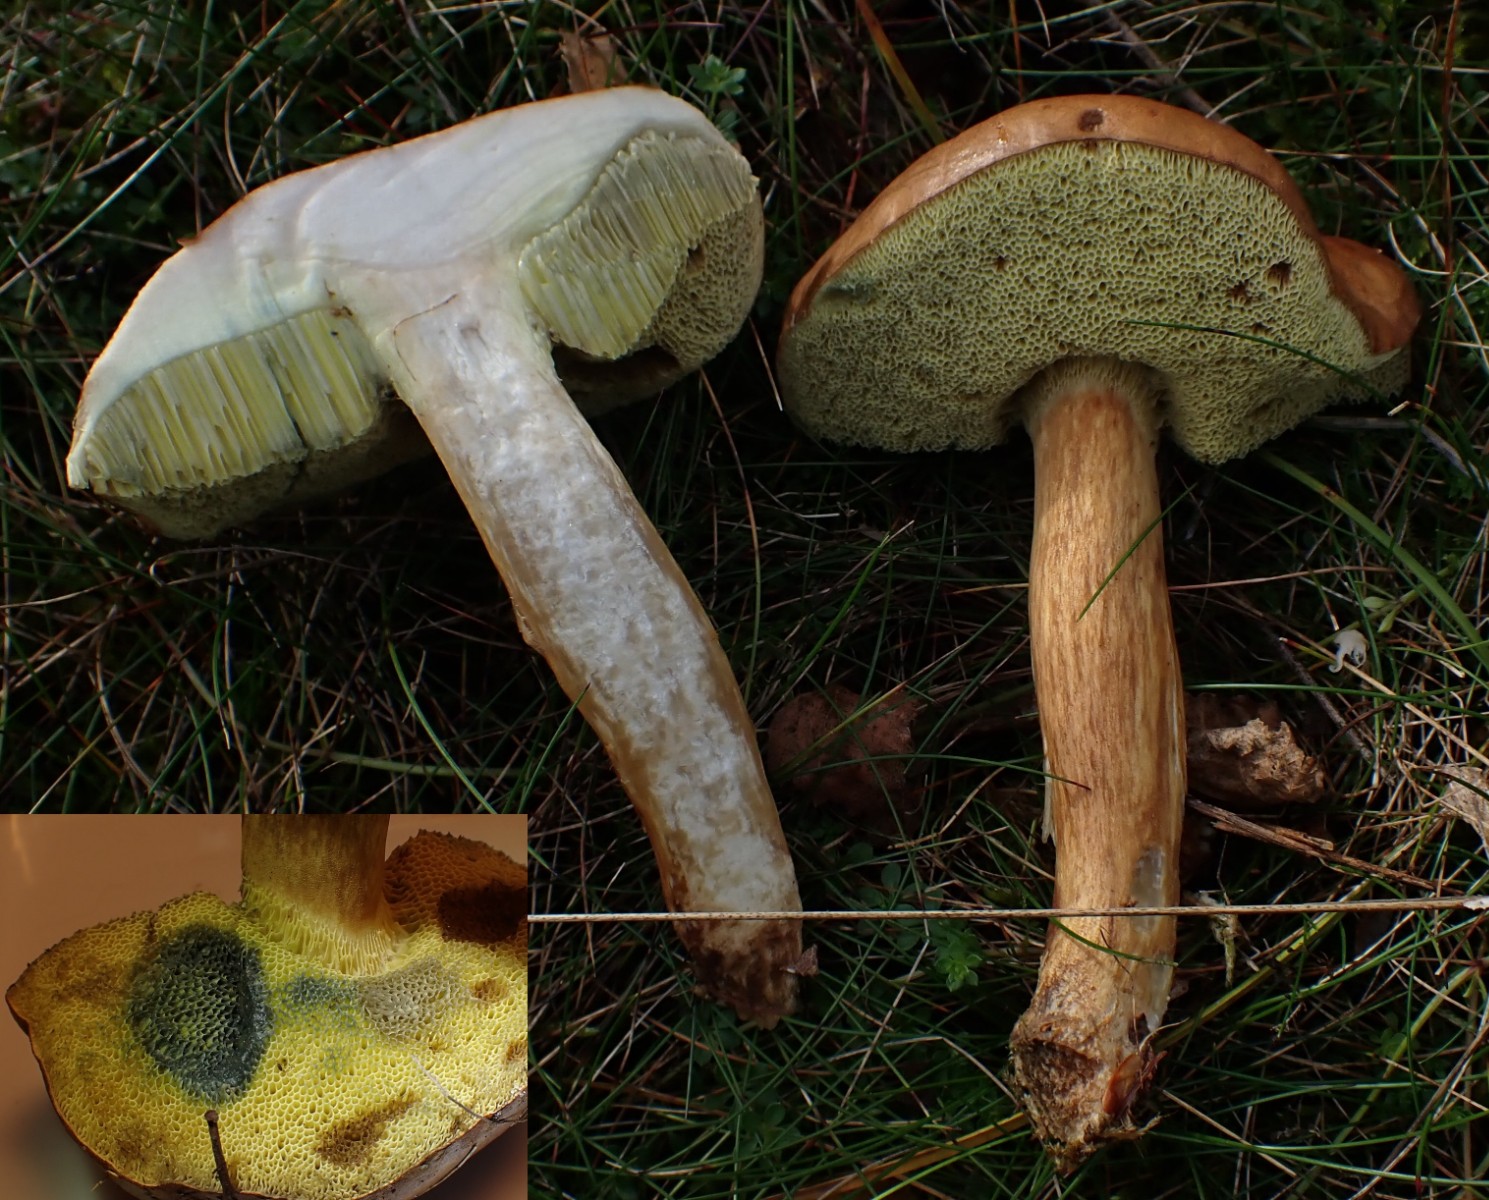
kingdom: Fungi
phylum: Basidiomycota
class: Agaricomycetes
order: Boletales
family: Boletaceae
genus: Imleria
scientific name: Imleria badia
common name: brunstokket rørhat
